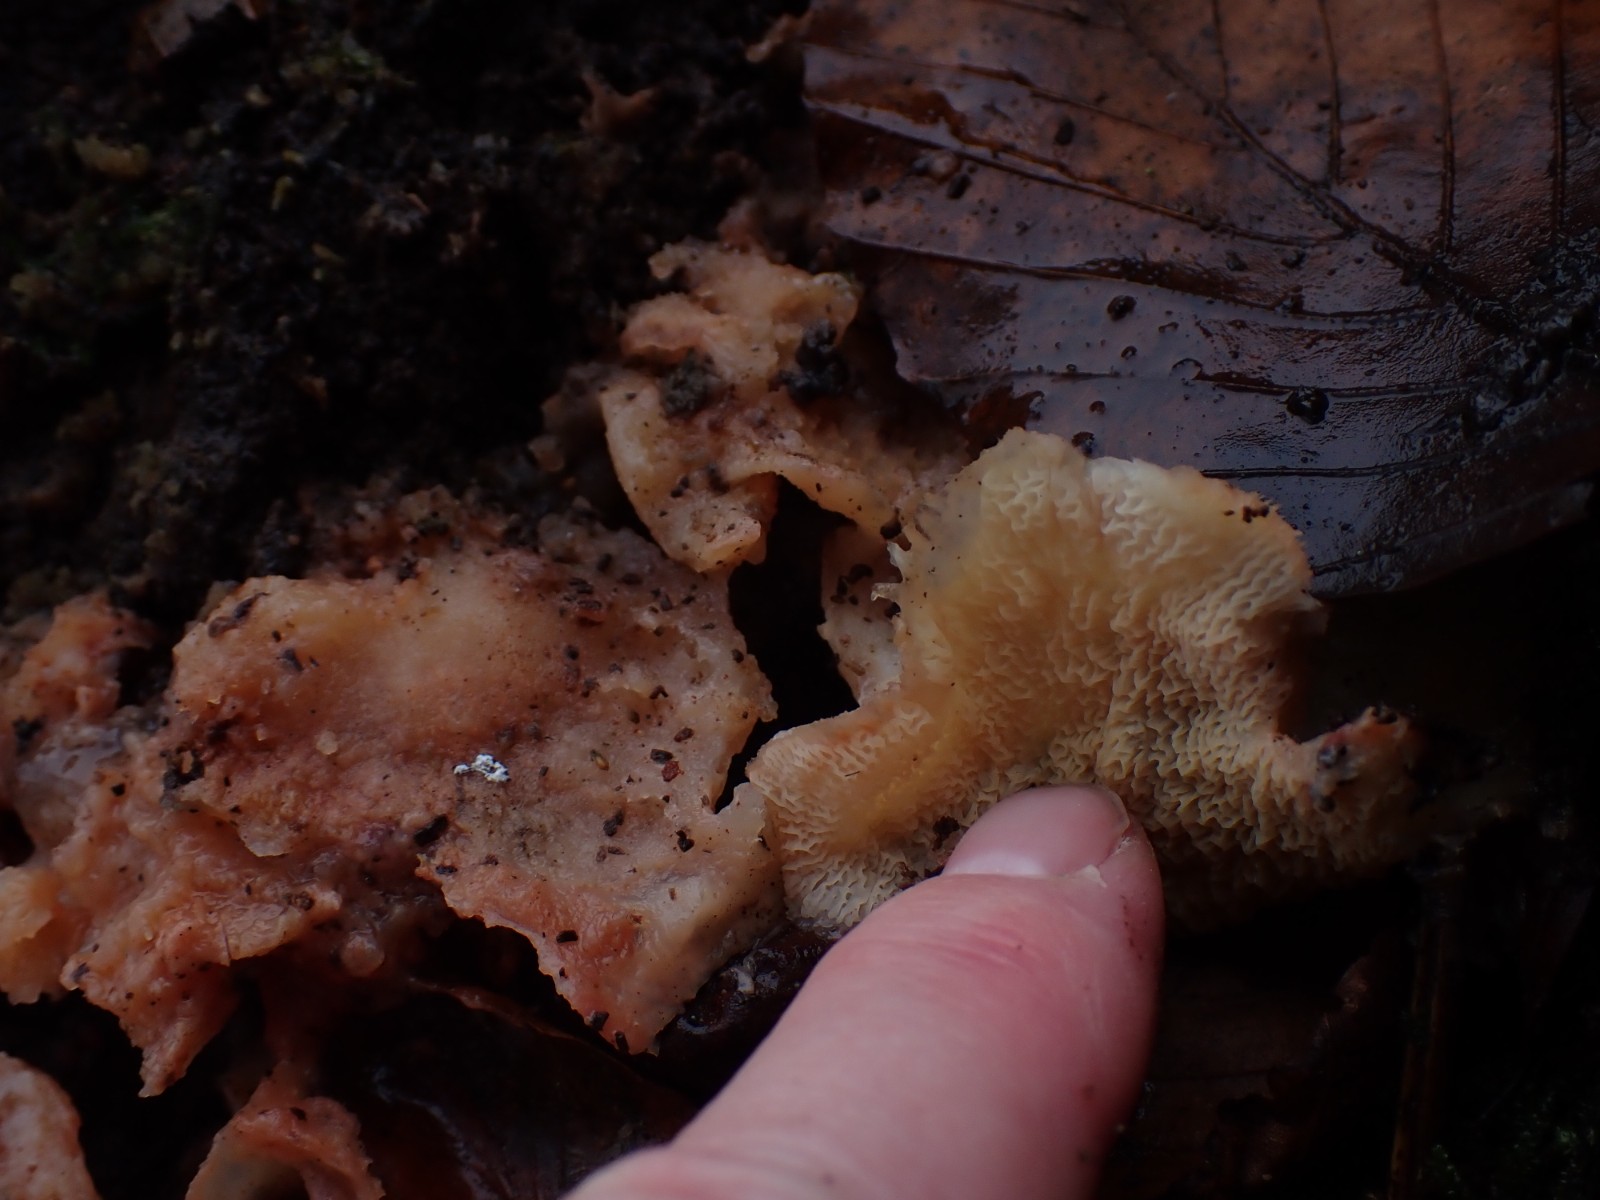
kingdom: Fungi
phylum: Basidiomycota
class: Agaricomycetes
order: Polyporales
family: Meruliaceae
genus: Phlebia
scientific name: Phlebia tremellosa
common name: bævrende åresvamp
